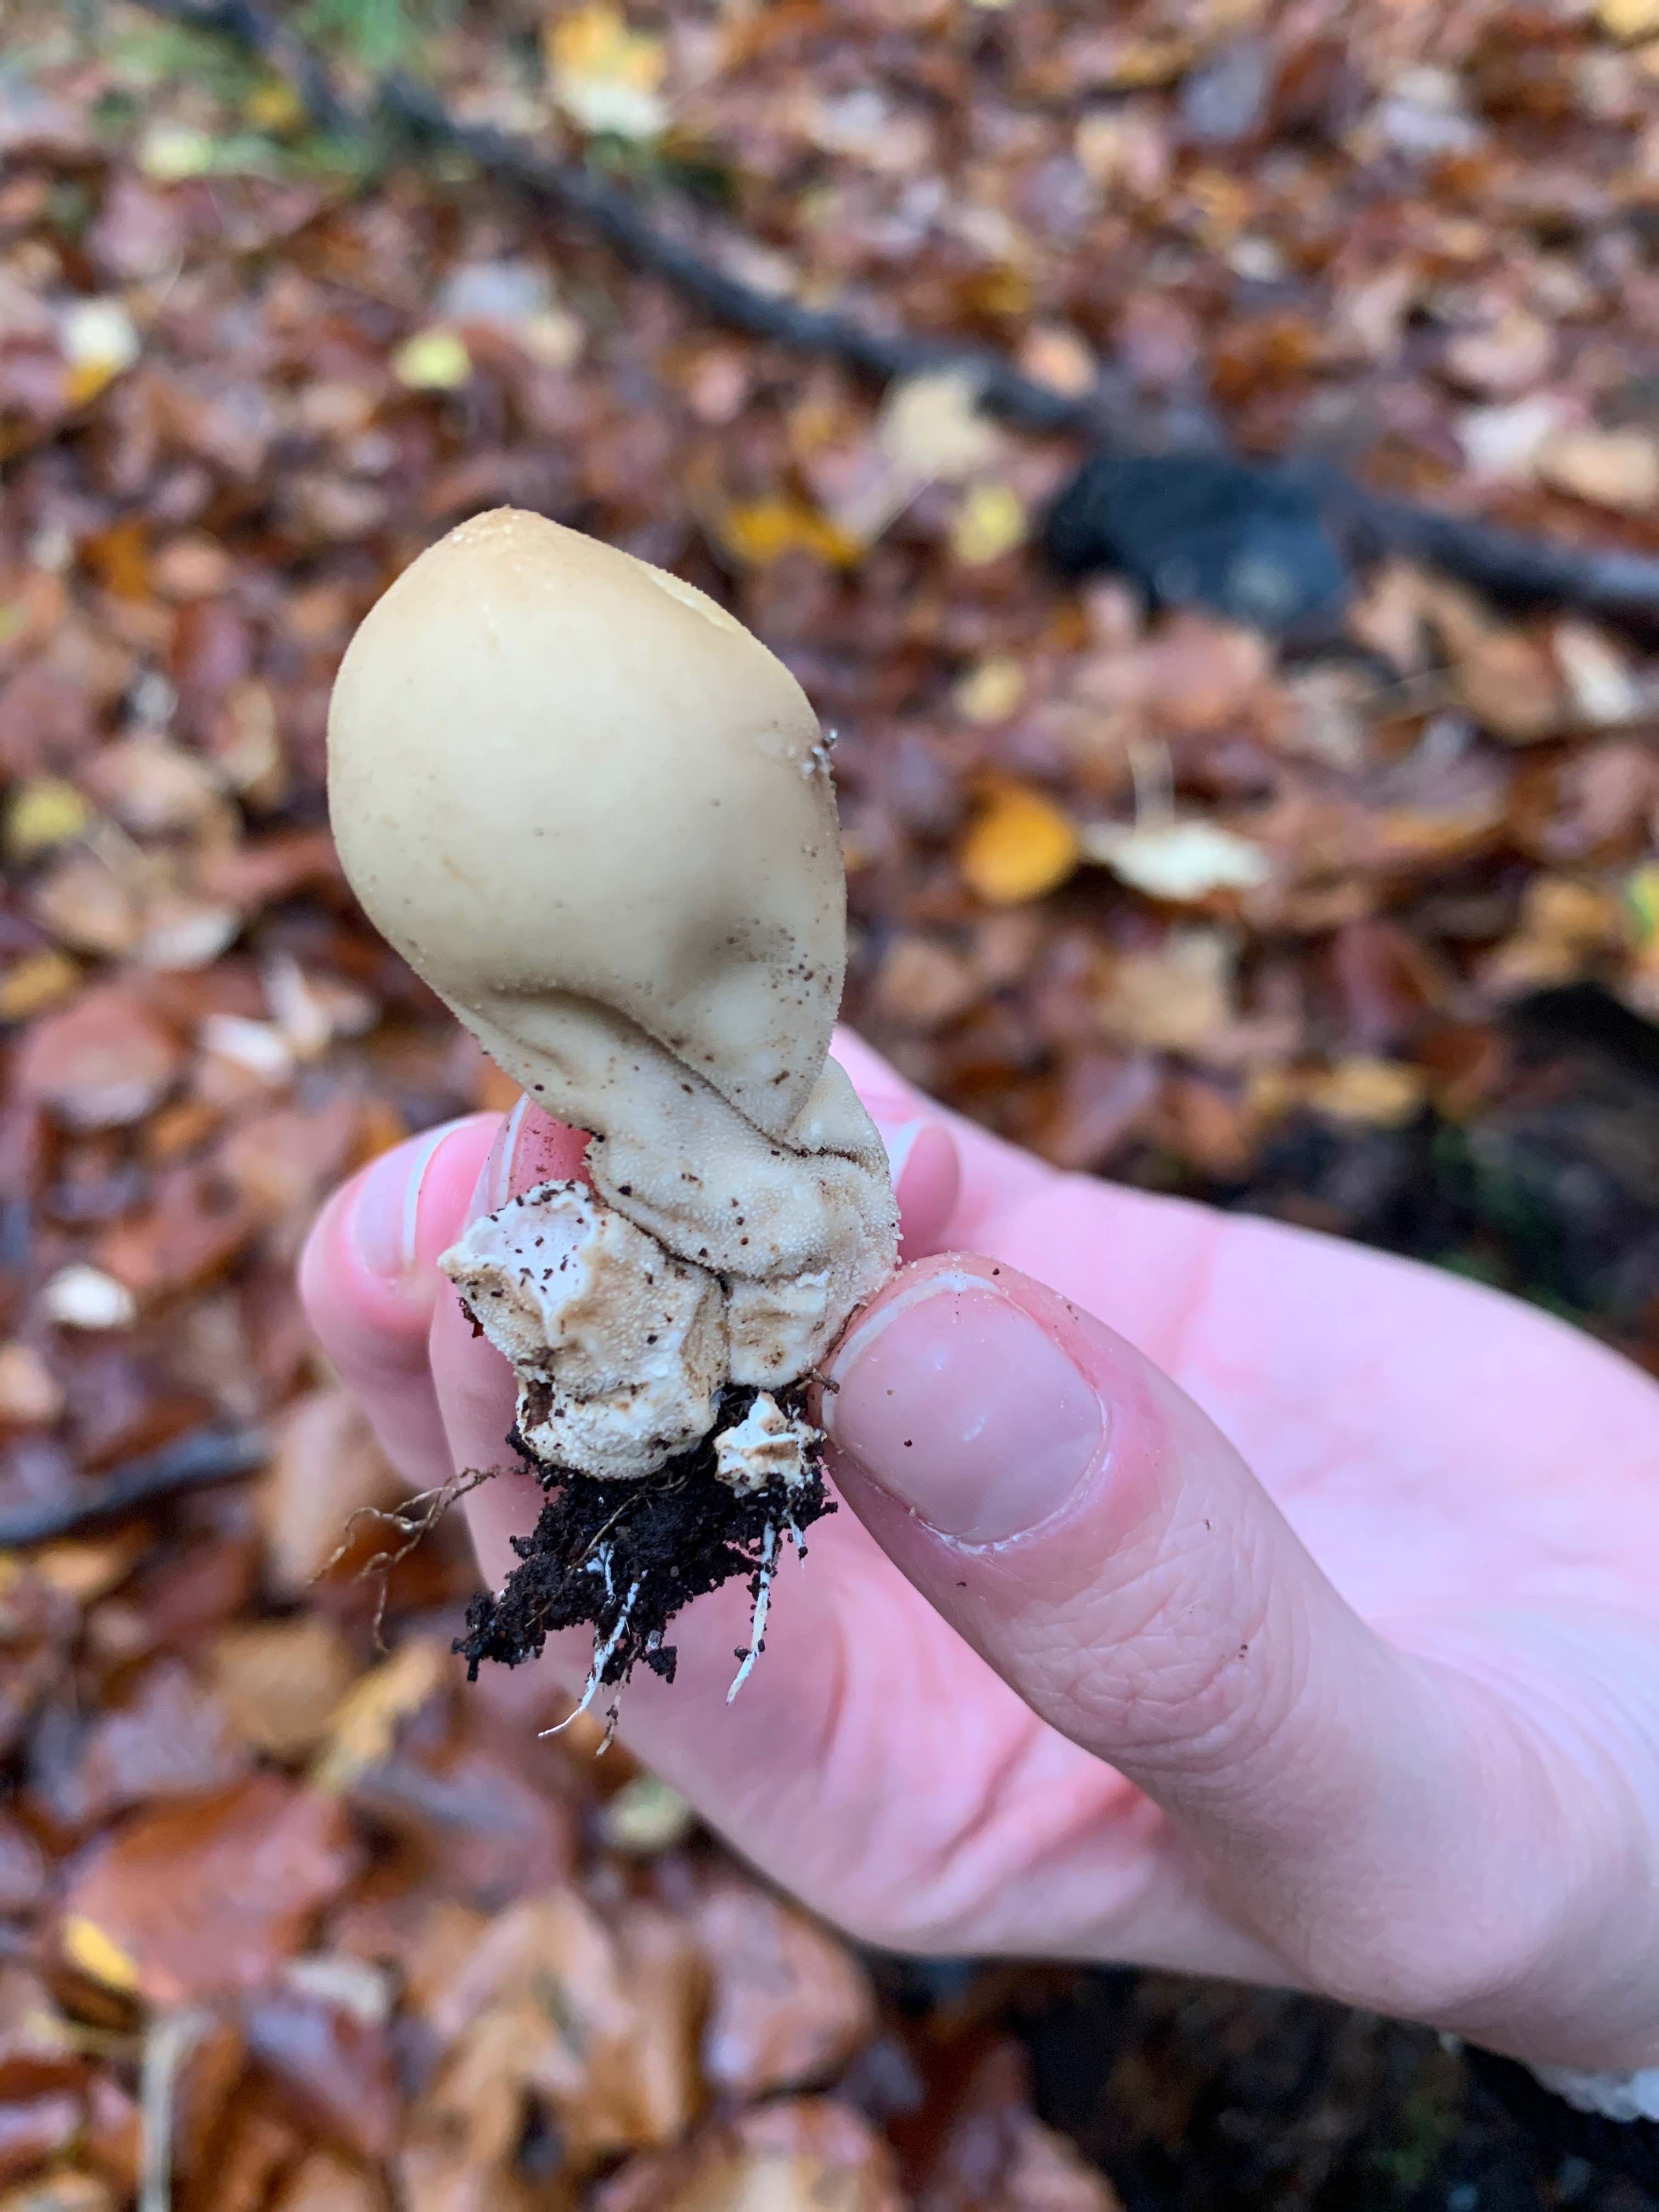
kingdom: Fungi
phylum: Basidiomycota
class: Agaricomycetes
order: Agaricales
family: Lycoperdaceae
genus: Apioperdon
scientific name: Apioperdon pyriforme
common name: pære-støvbold
